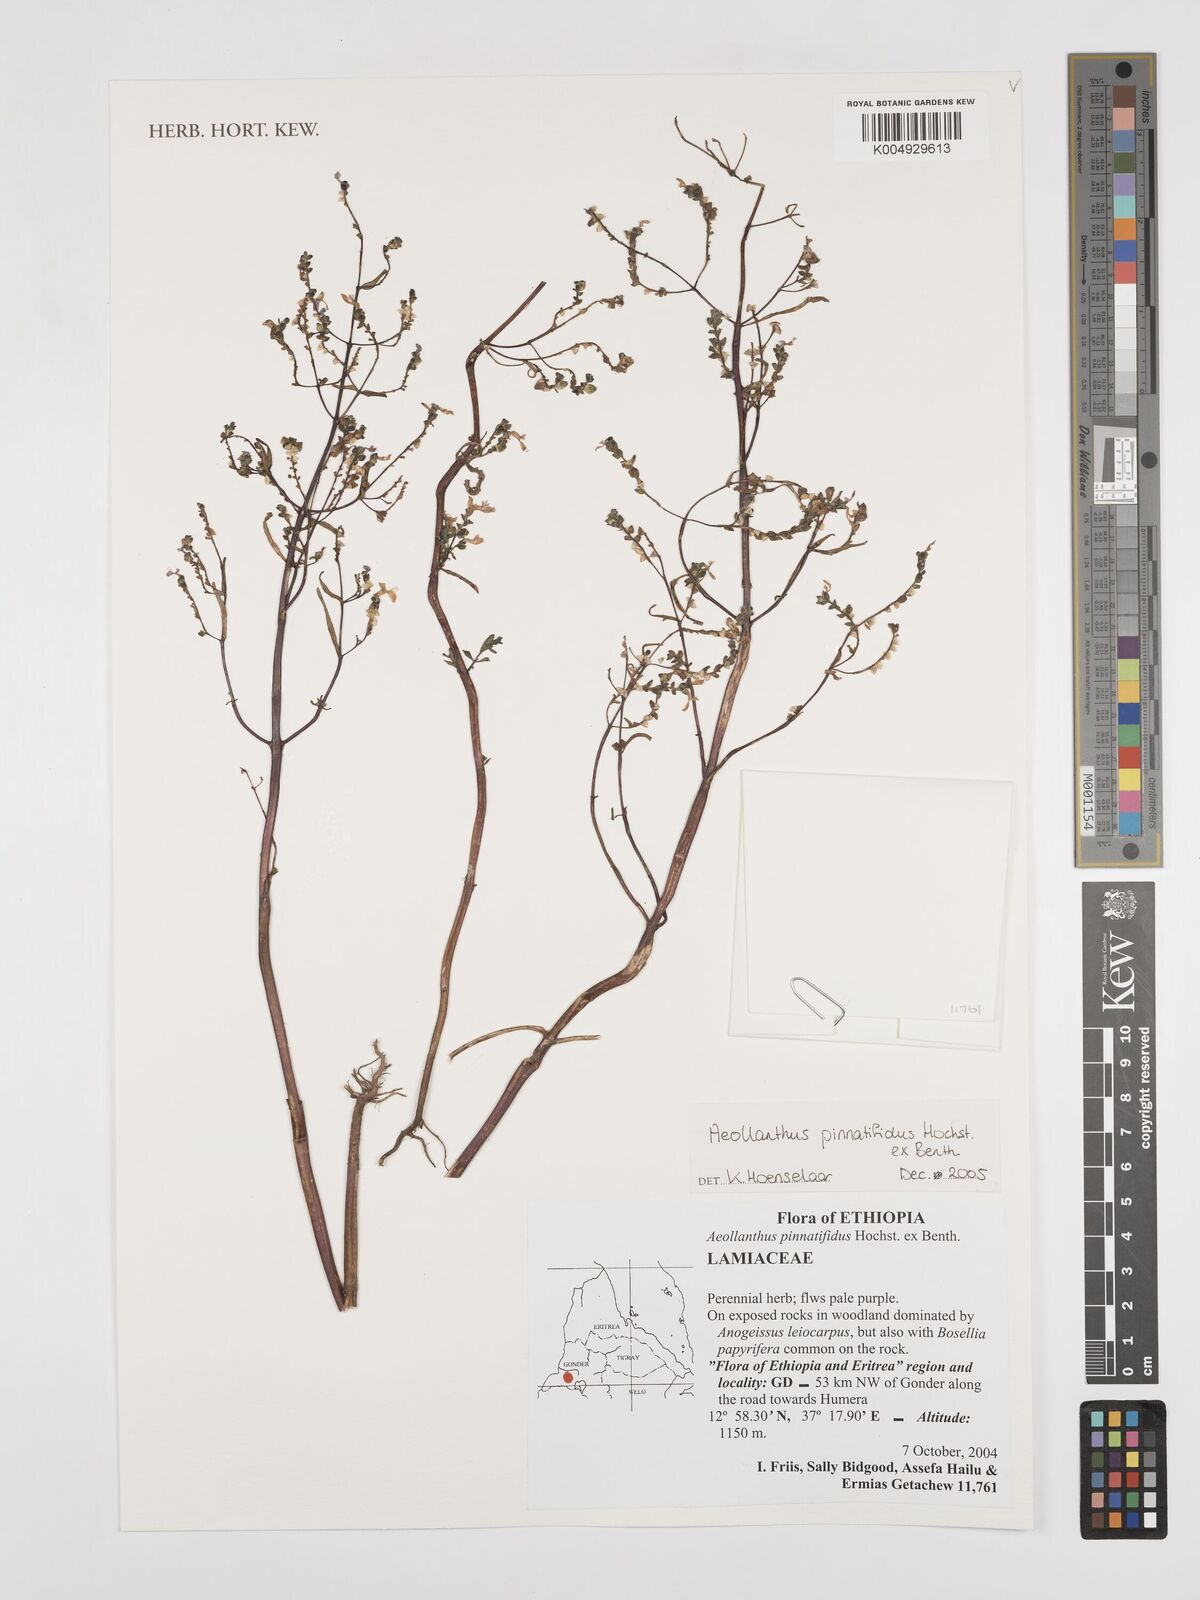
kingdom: Plantae
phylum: Tracheophyta
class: Magnoliopsida
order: Lamiales
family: Lamiaceae
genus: Aeollanthus
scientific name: Aeollanthus pinnatifidus
